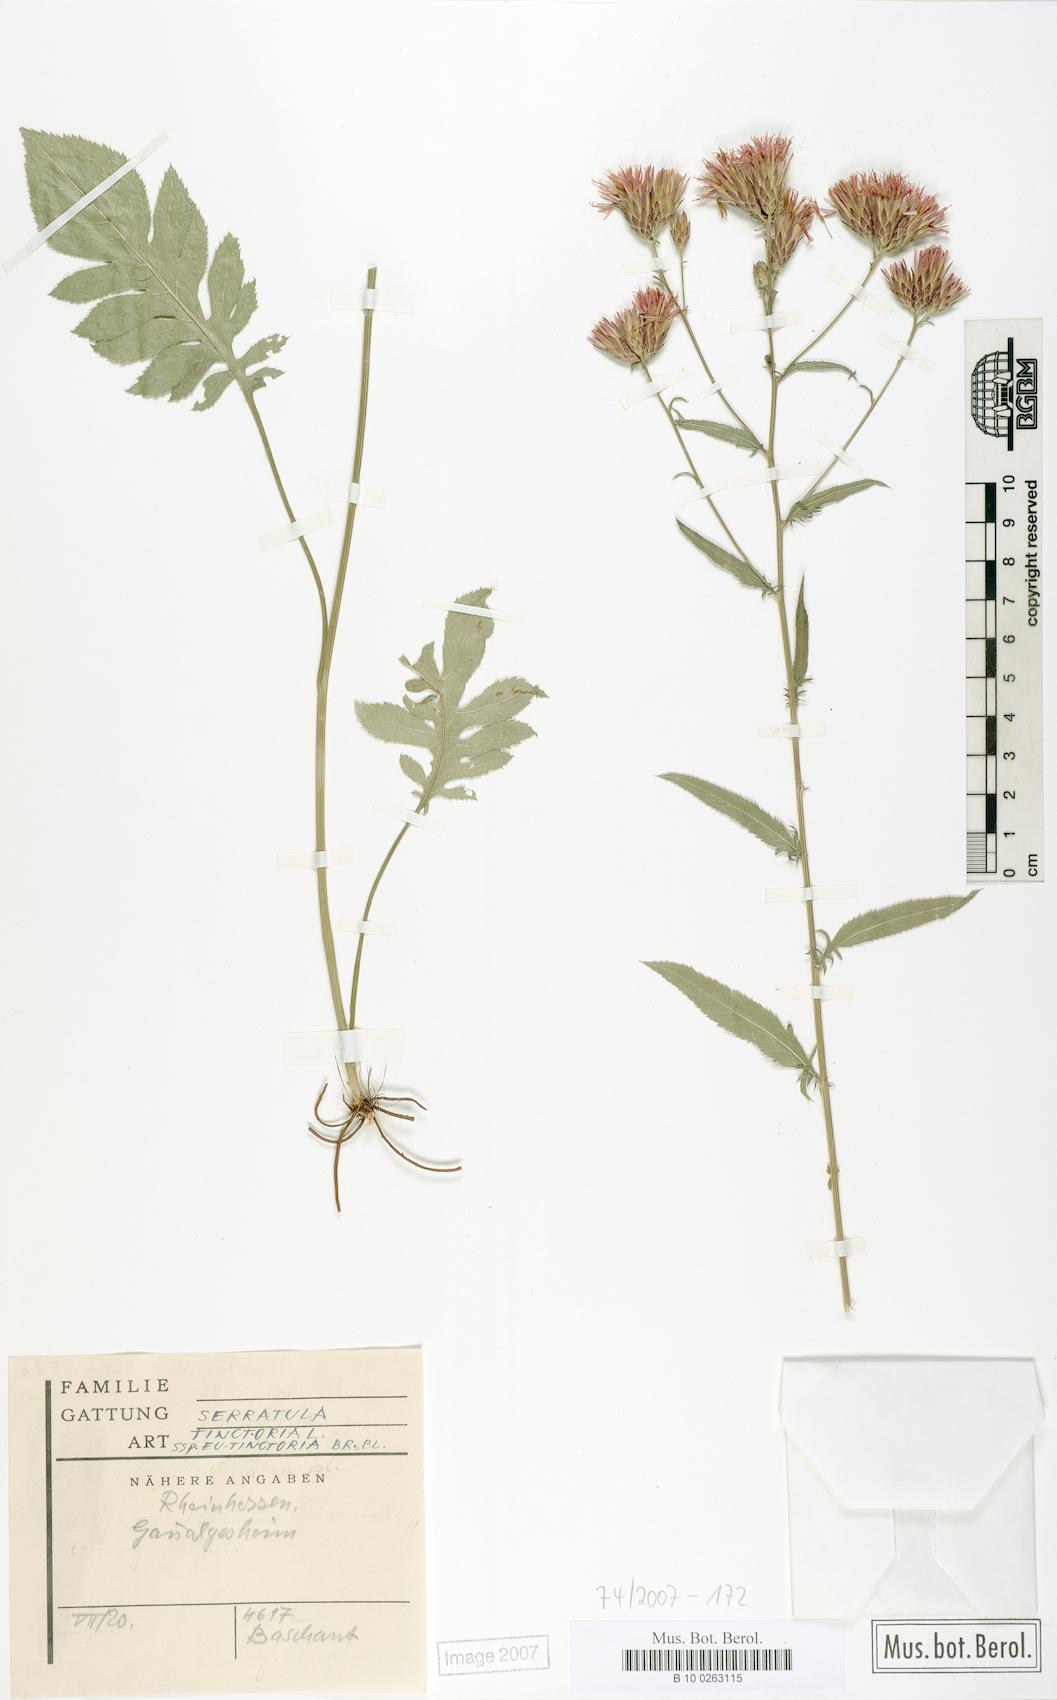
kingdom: Plantae
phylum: Tracheophyta
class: Magnoliopsida
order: Asterales
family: Asteraceae
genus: Serratula
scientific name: Serratula tinctoria
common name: Saw-wort
